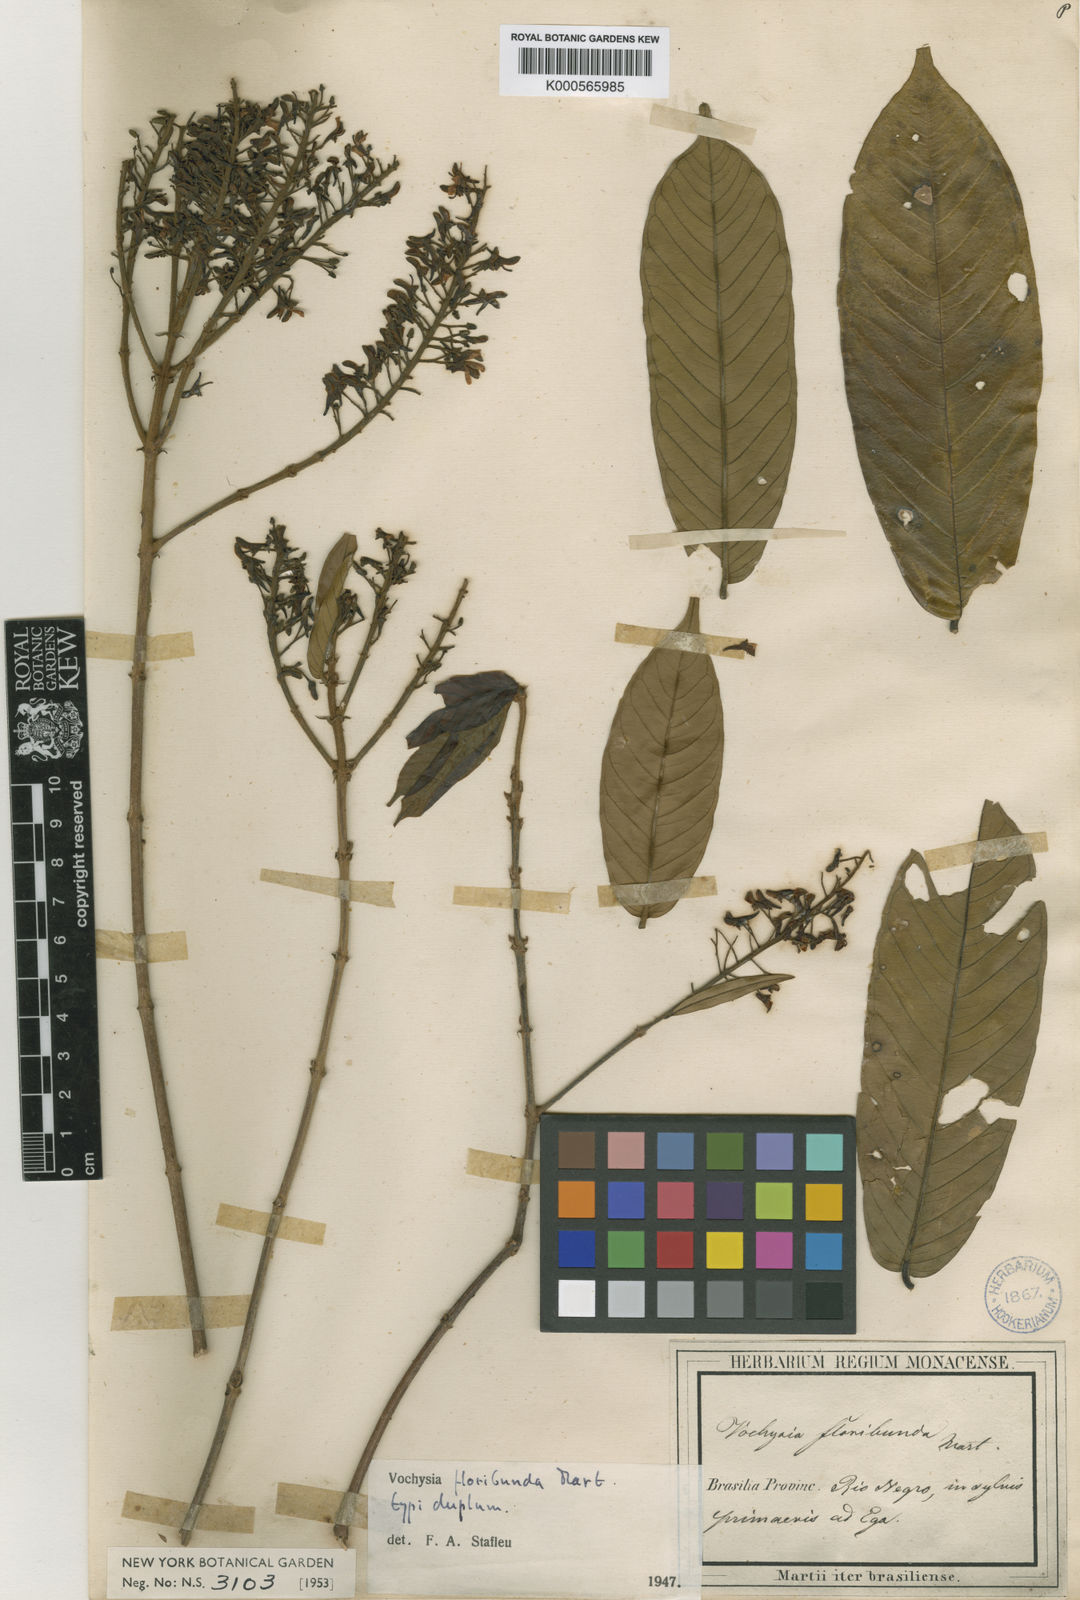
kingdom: Plantae
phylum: Tracheophyta
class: Magnoliopsida
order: Myrtales
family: Vochysiaceae
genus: Vochysia
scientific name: Vochysia floribunda
